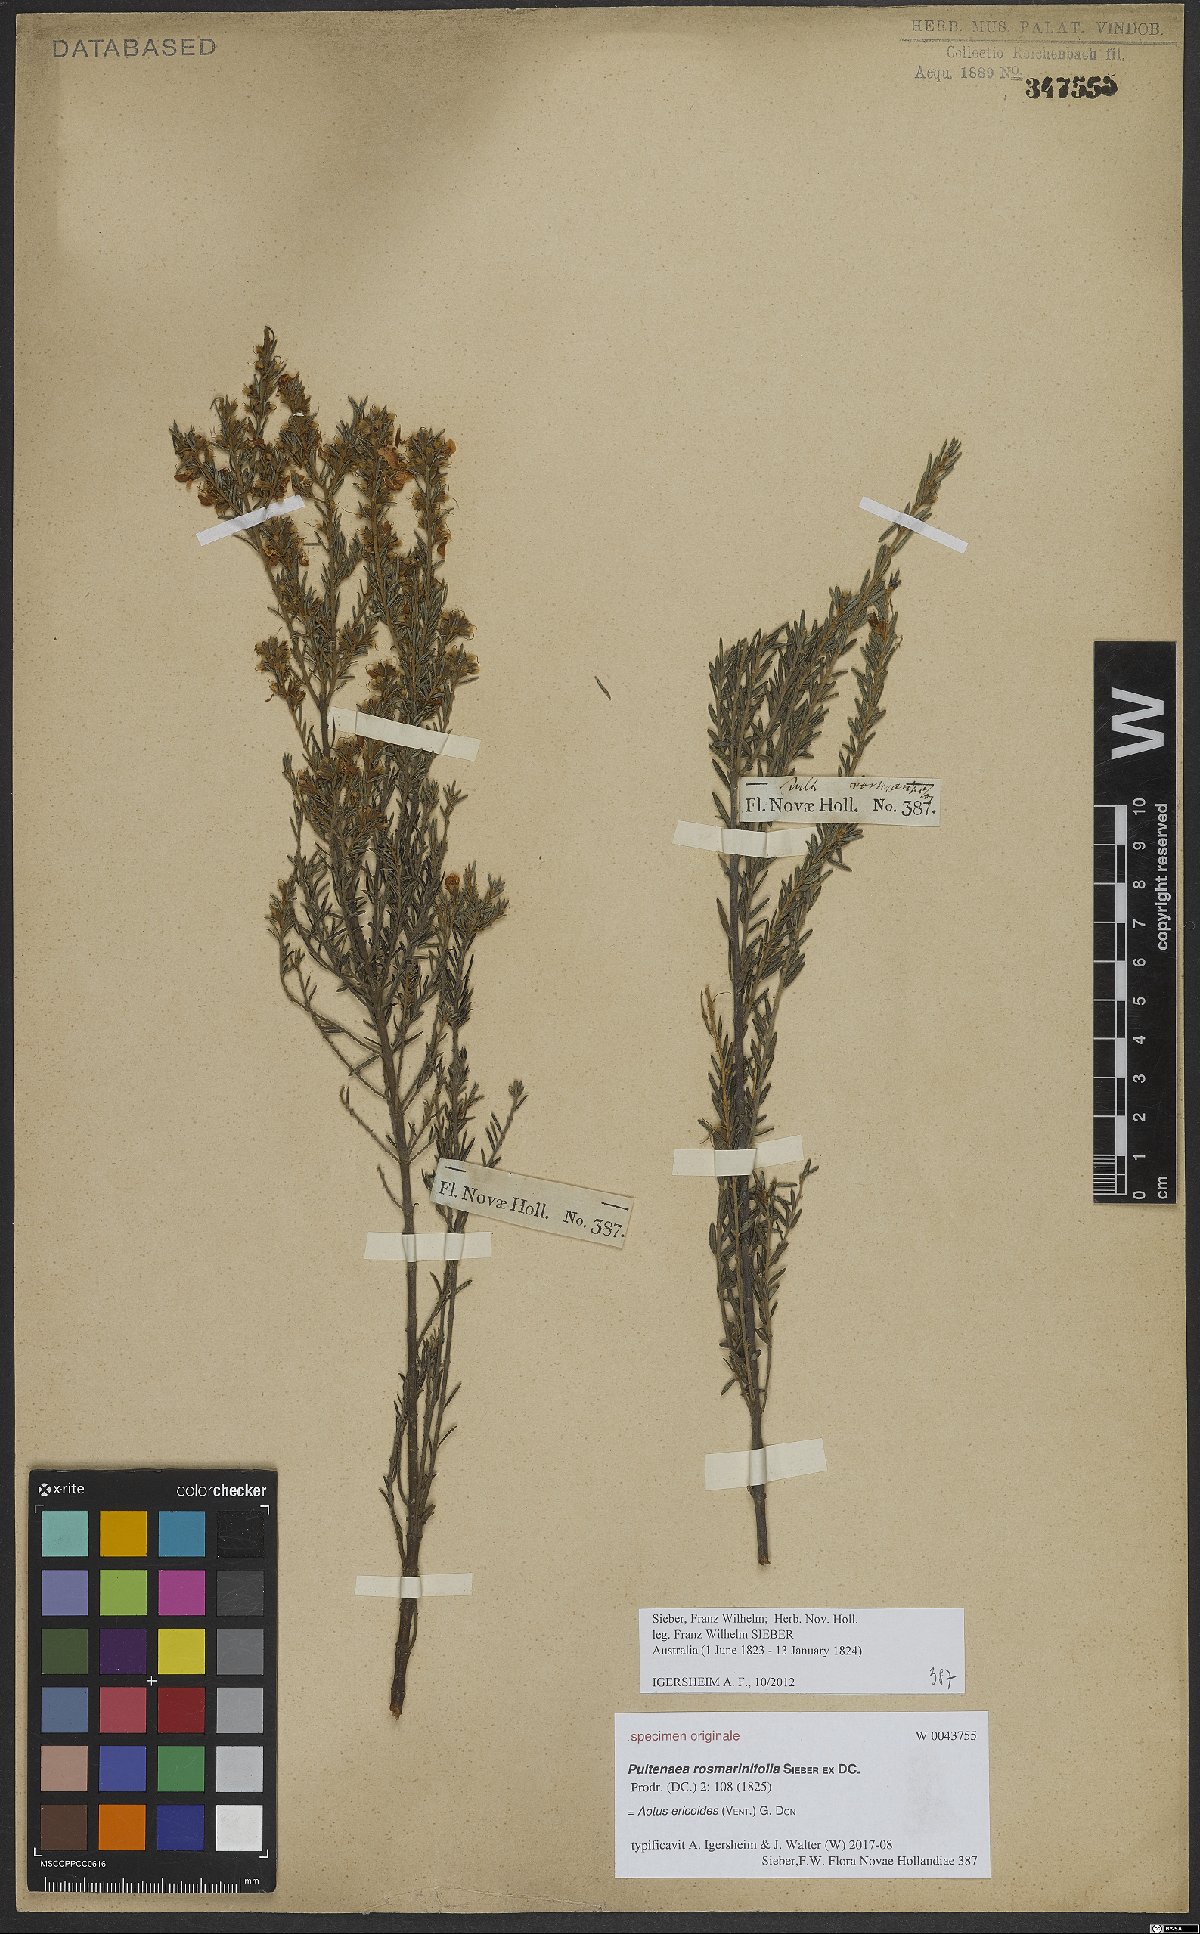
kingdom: Plantae
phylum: Tracheophyta
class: Magnoliopsida
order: Fabales
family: Fabaceae
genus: Aotus
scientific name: Aotus ericoides
